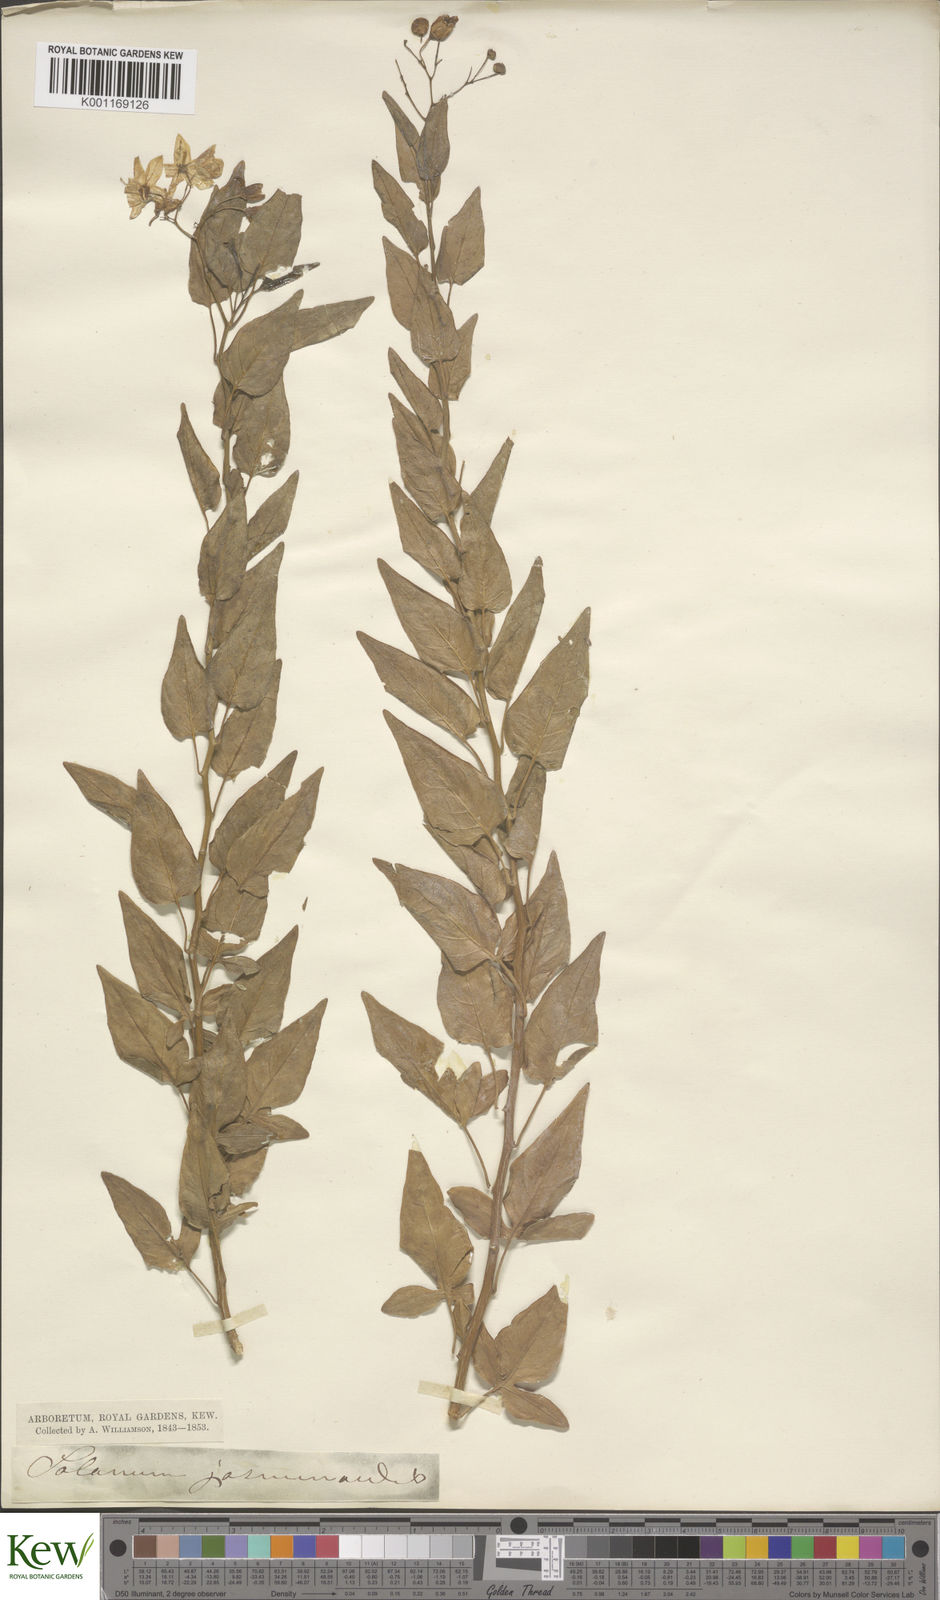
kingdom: Plantae
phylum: Tracheophyta
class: Magnoliopsida
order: Solanales
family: Solanaceae
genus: Solanum
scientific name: Solanum laxum
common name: Nightshade
